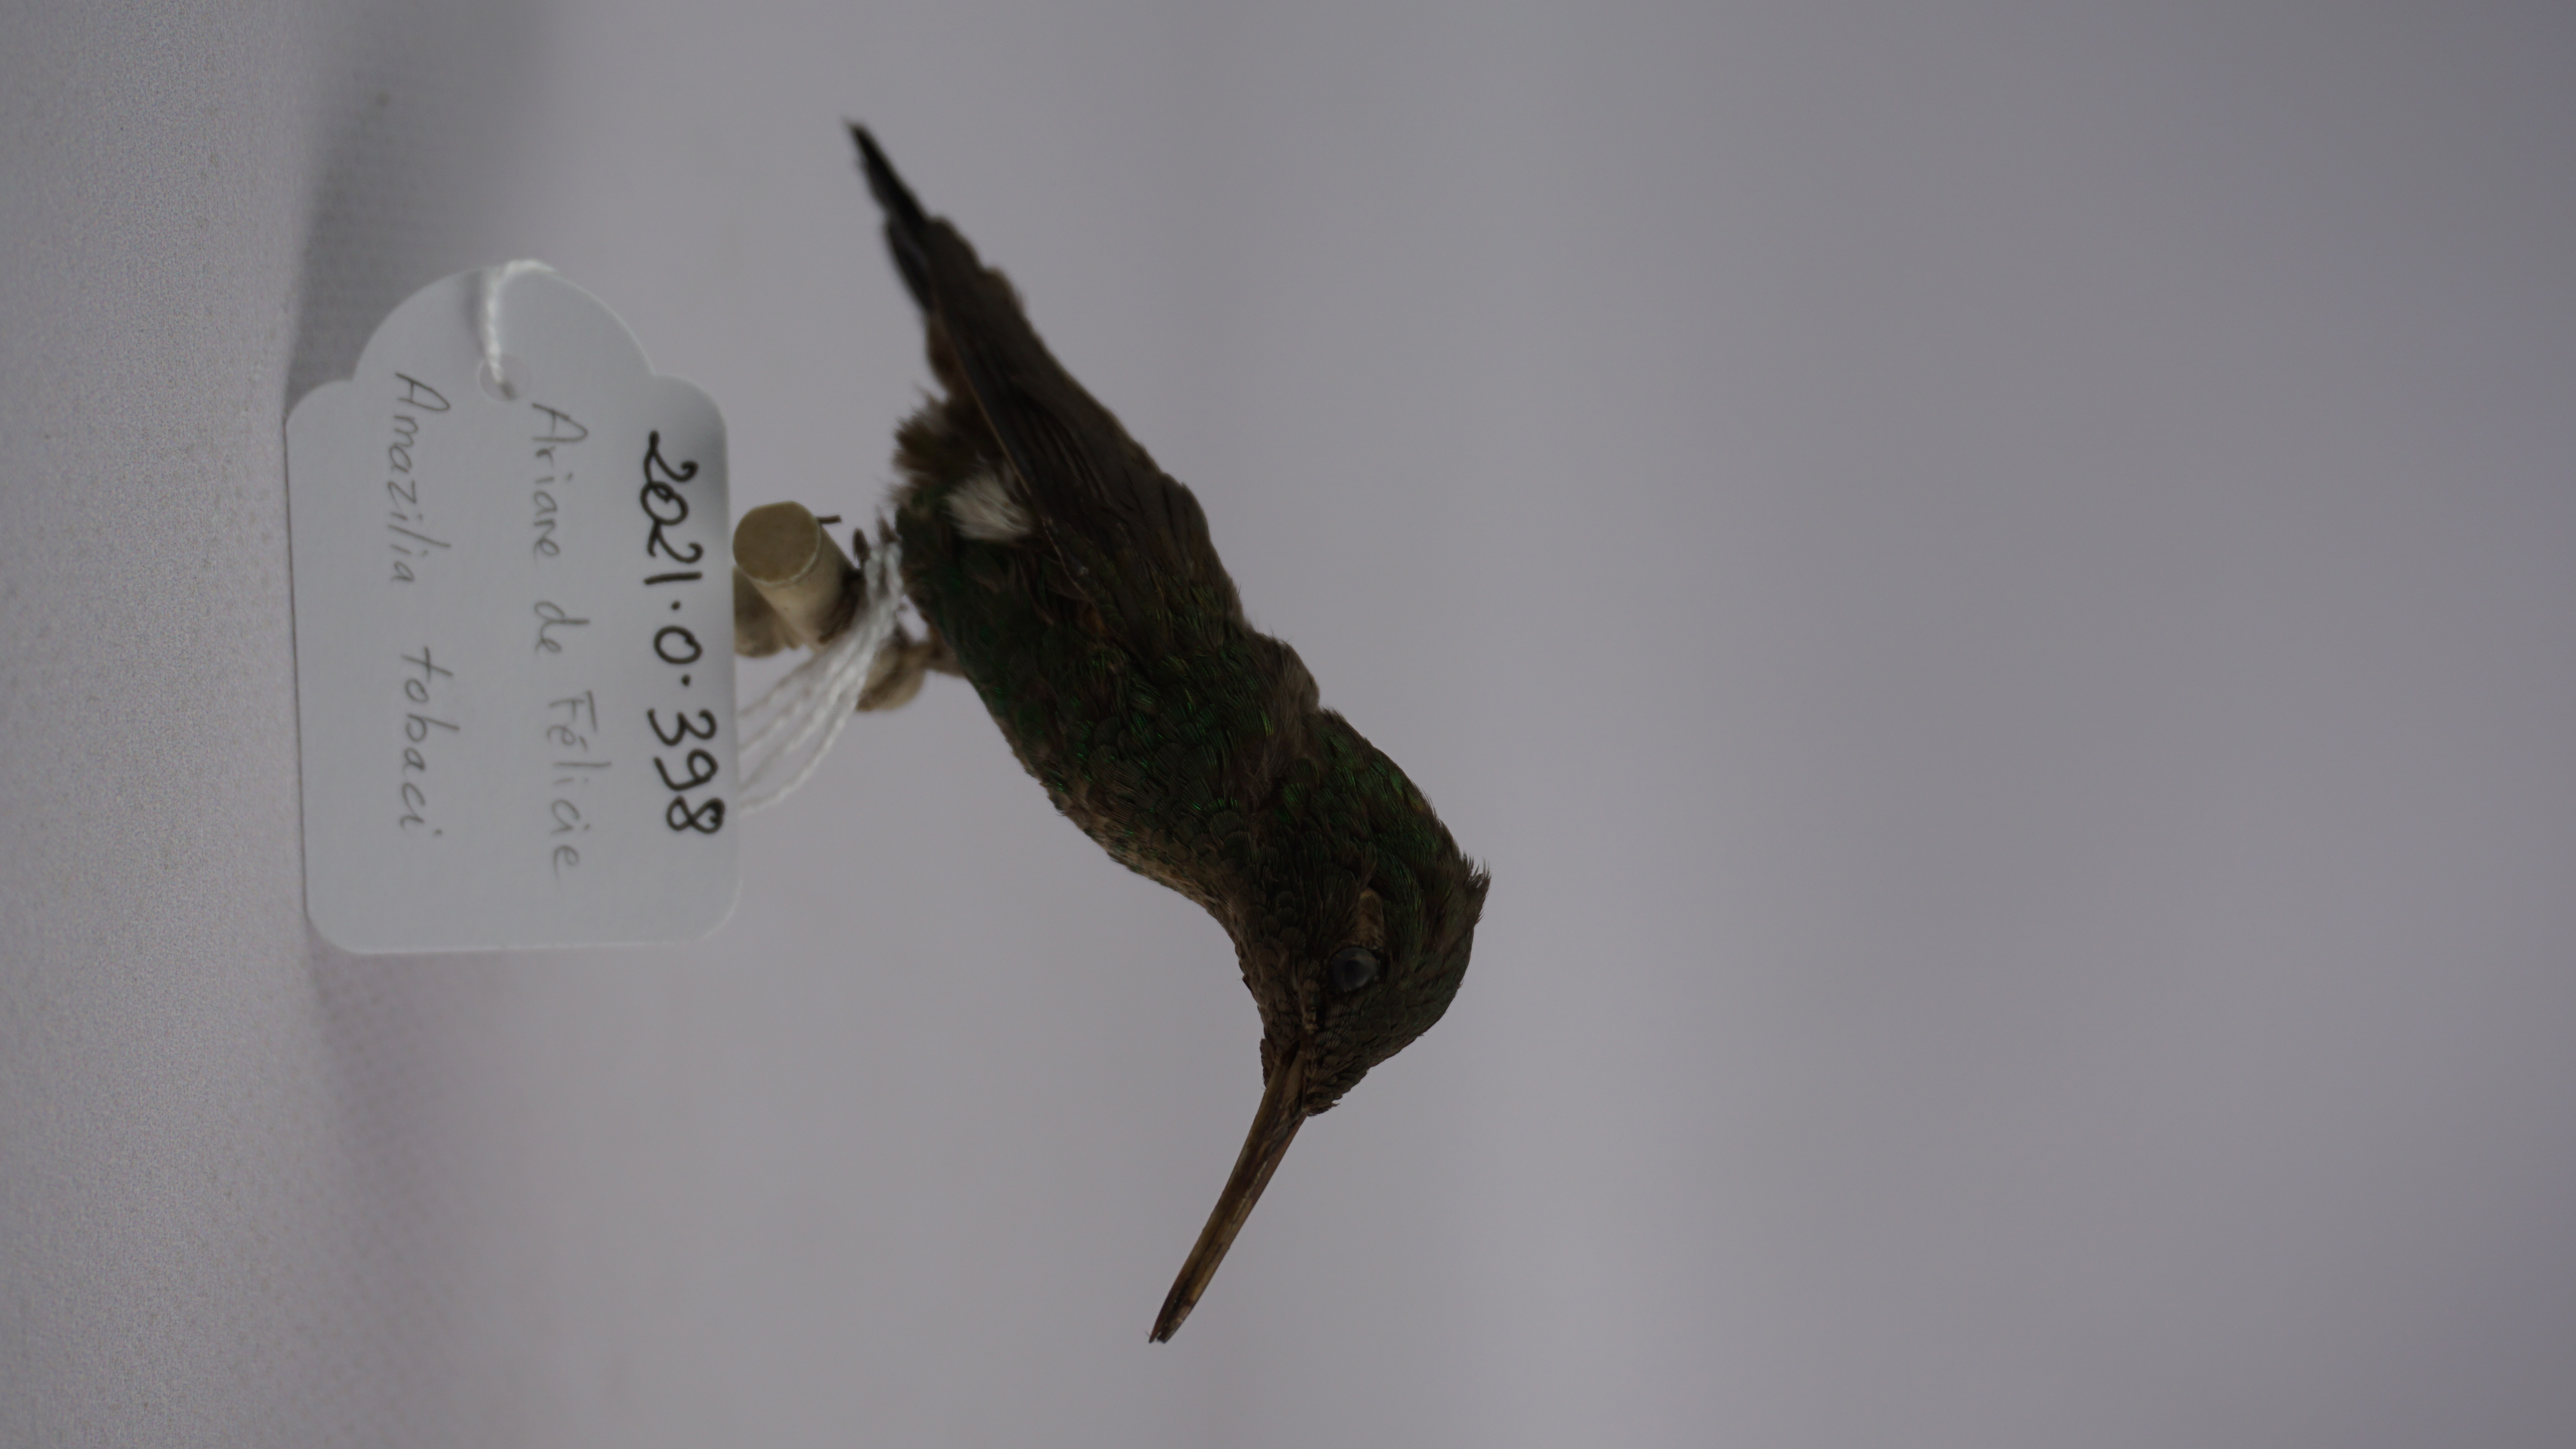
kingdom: Animalia
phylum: Chordata
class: Aves
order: Apodiformes
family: Trochilidae
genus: Amazilia
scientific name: Amazilia tzacatl
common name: Rufous-tailed hummingbird
